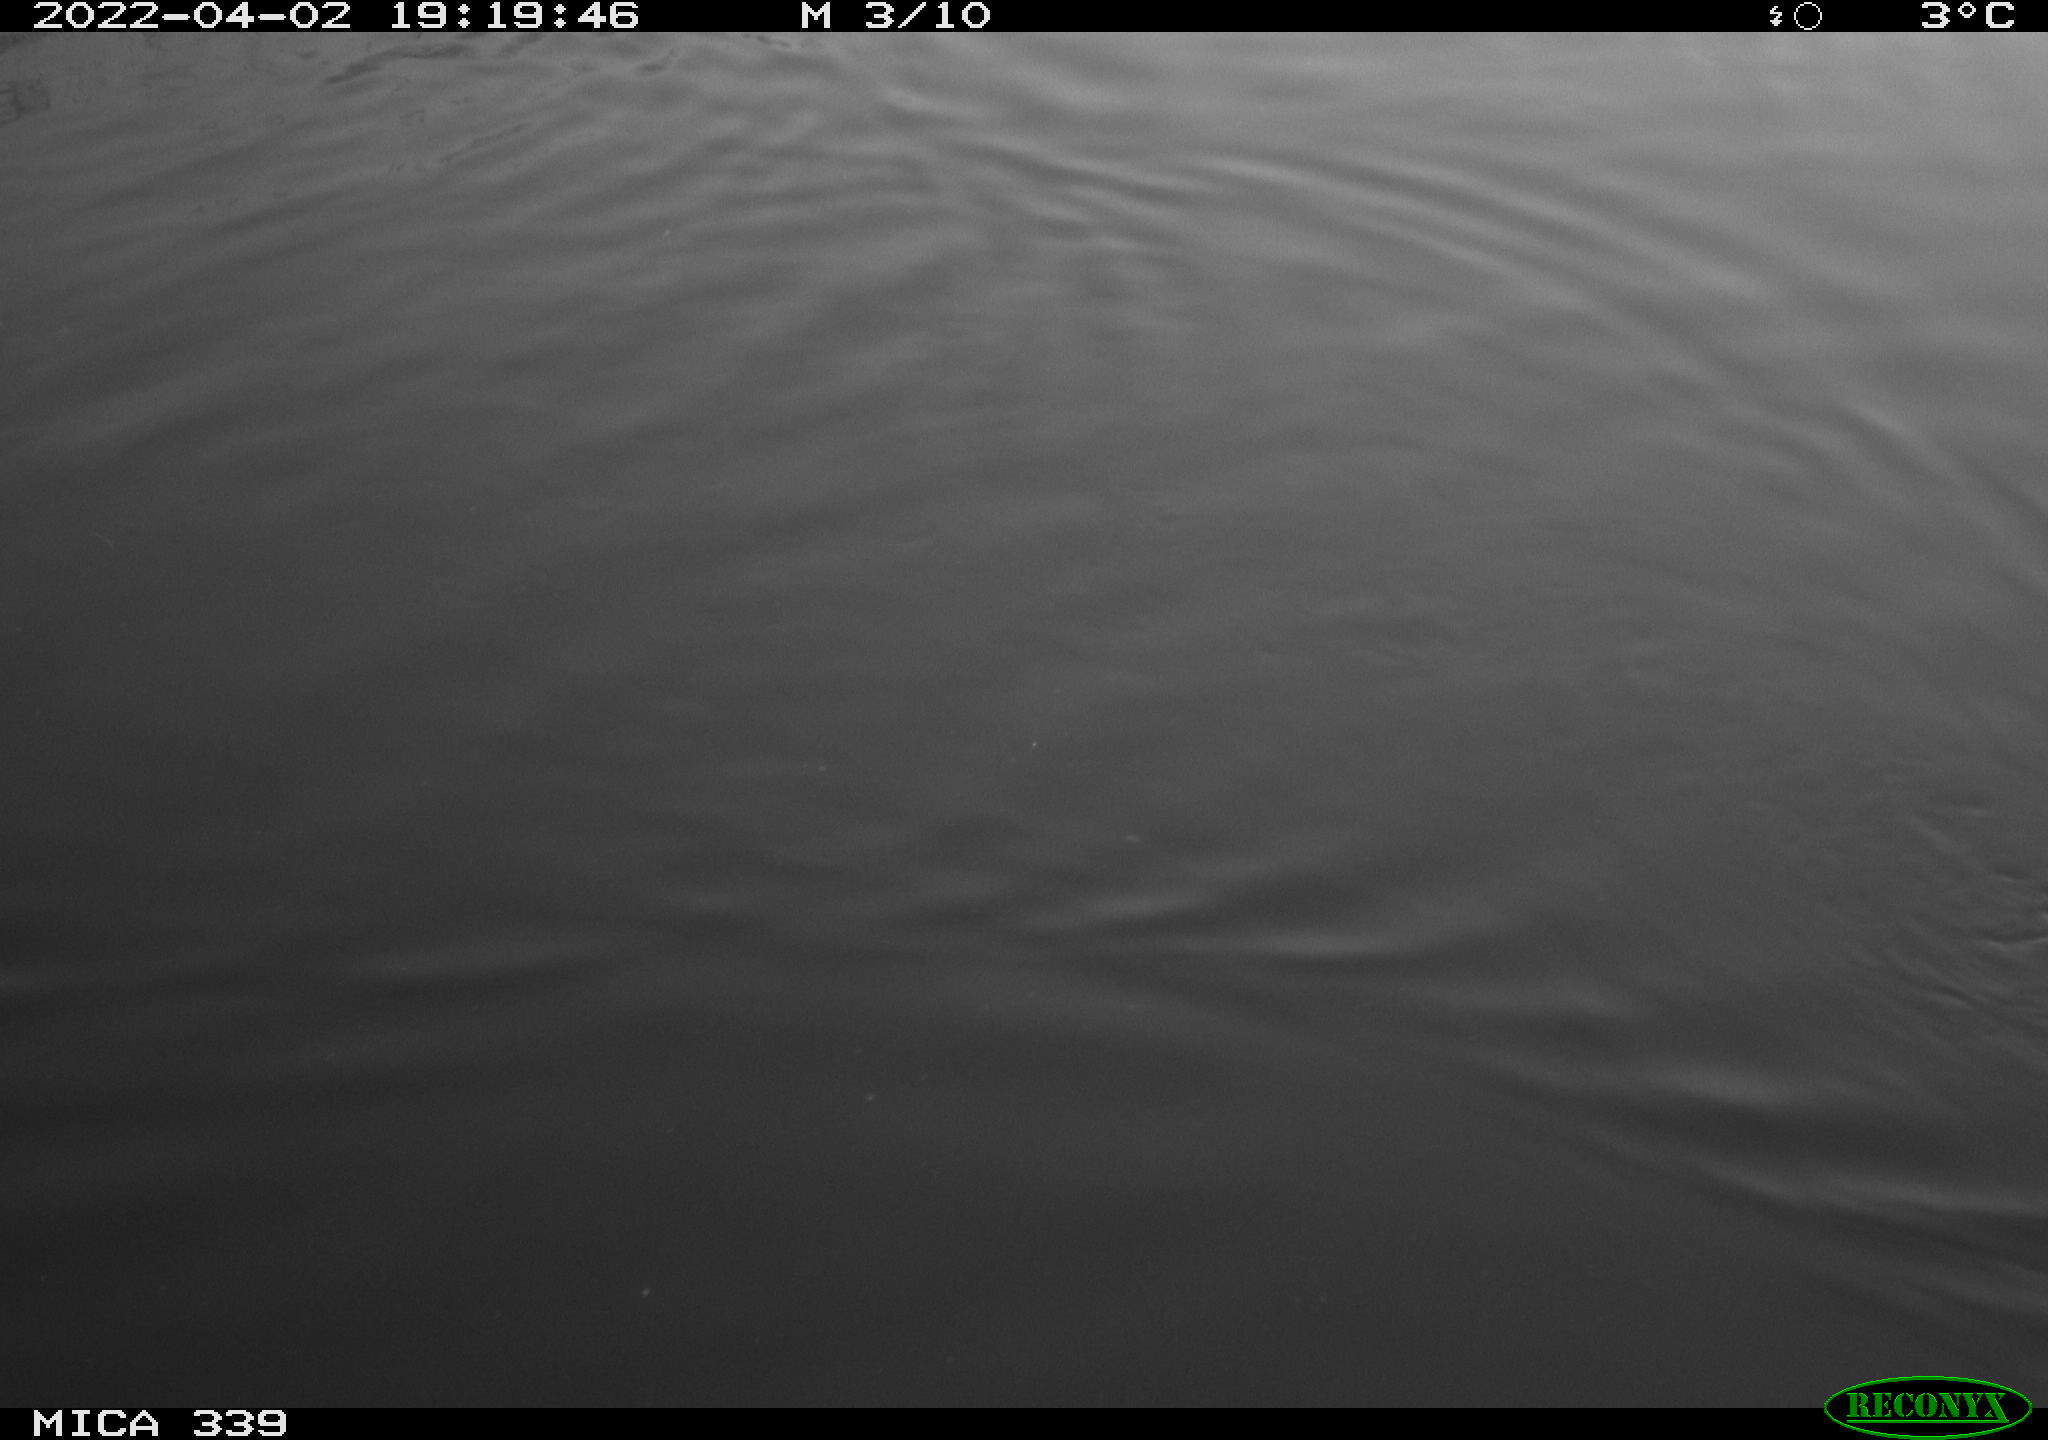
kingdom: Animalia
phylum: Chordata
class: Aves
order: Anseriformes
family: Anatidae
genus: Anas
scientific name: Anas platyrhynchos
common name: Mallard
